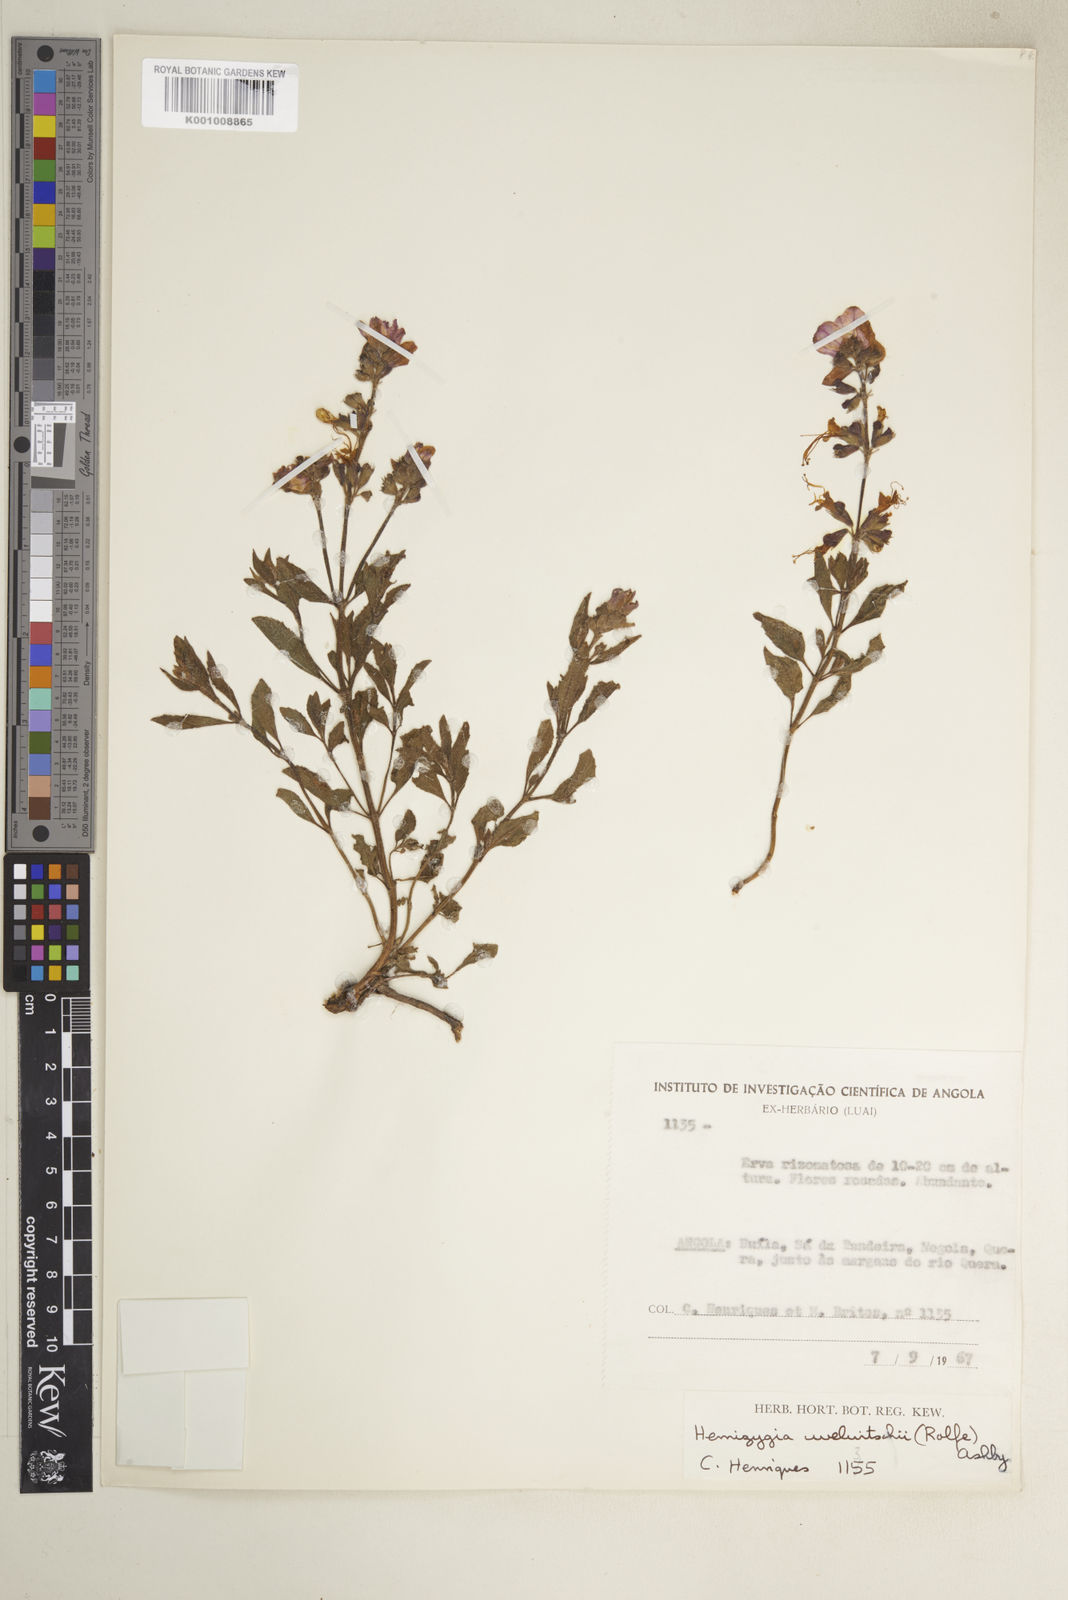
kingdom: Plantae
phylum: Tracheophyta
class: Magnoliopsida
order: Lamiales
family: Lamiaceae
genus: Syncolostemon
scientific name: Syncolostemon welwitschii
